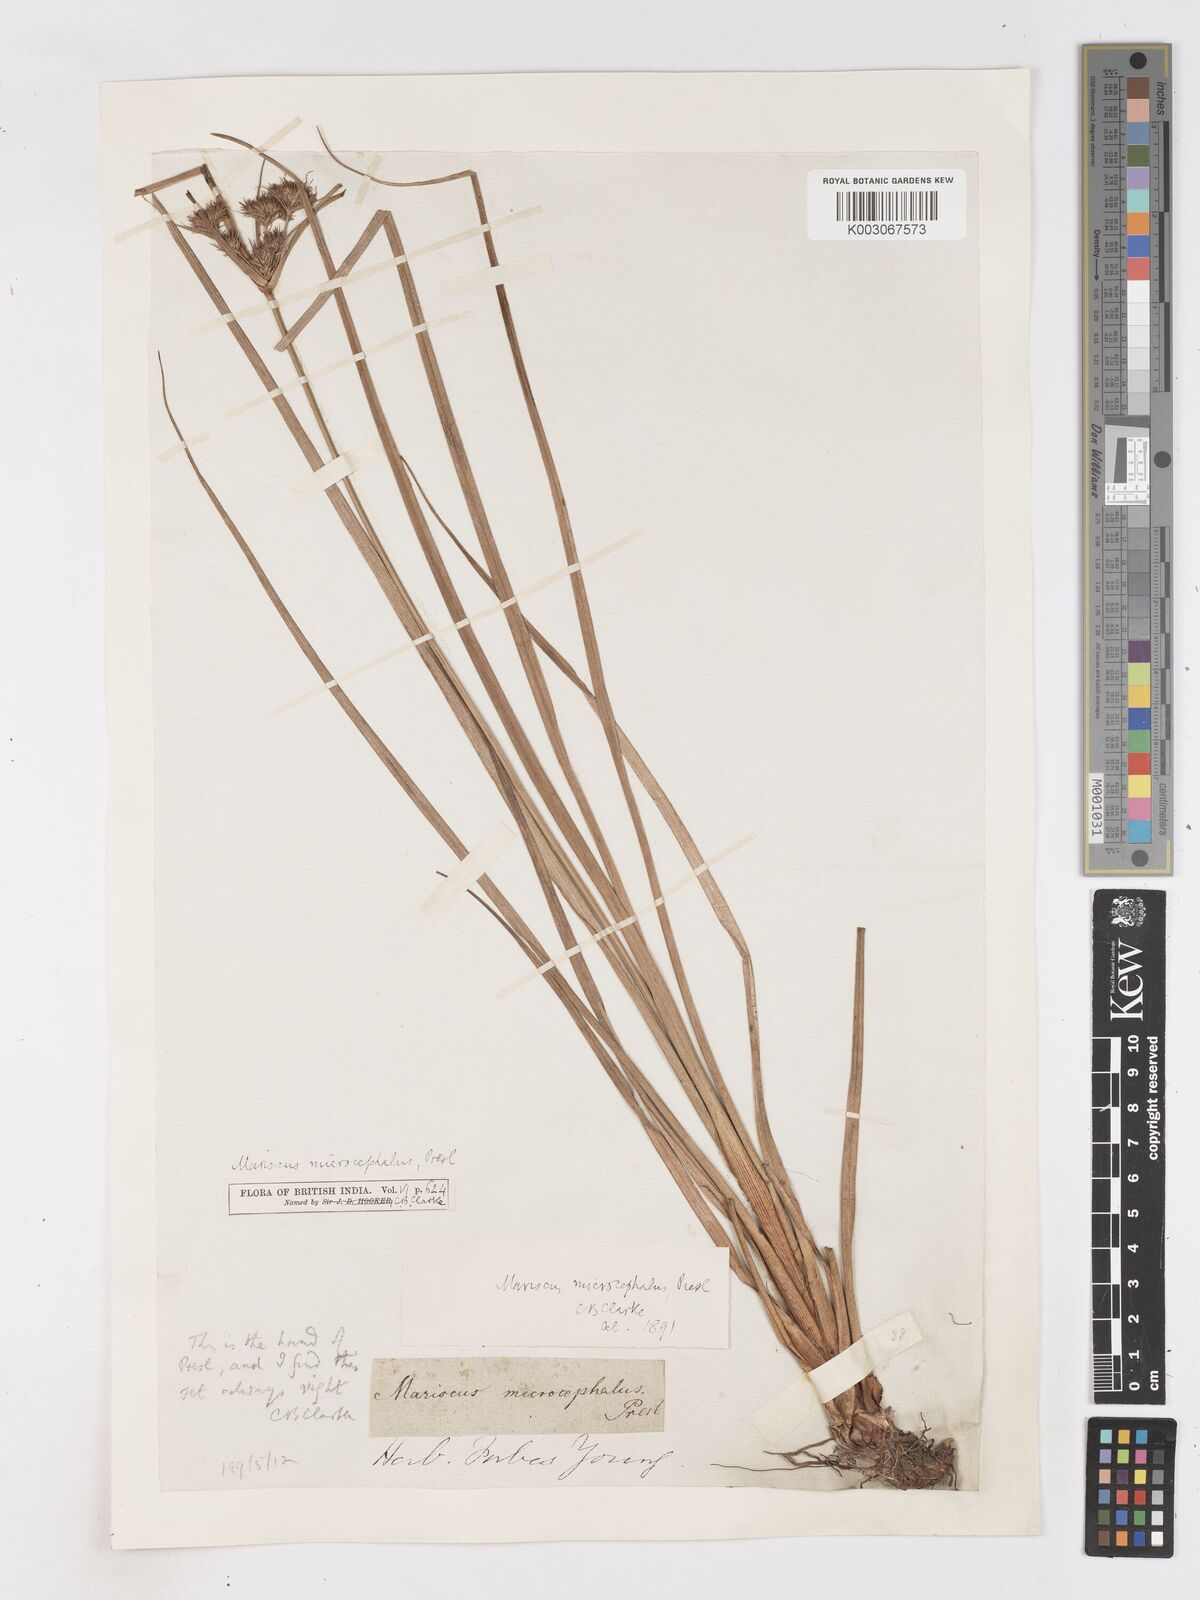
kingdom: Plantae
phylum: Tracheophyta
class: Liliopsida
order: Poales
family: Cyperaceae
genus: Cyperus
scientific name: Cyperus compactus
